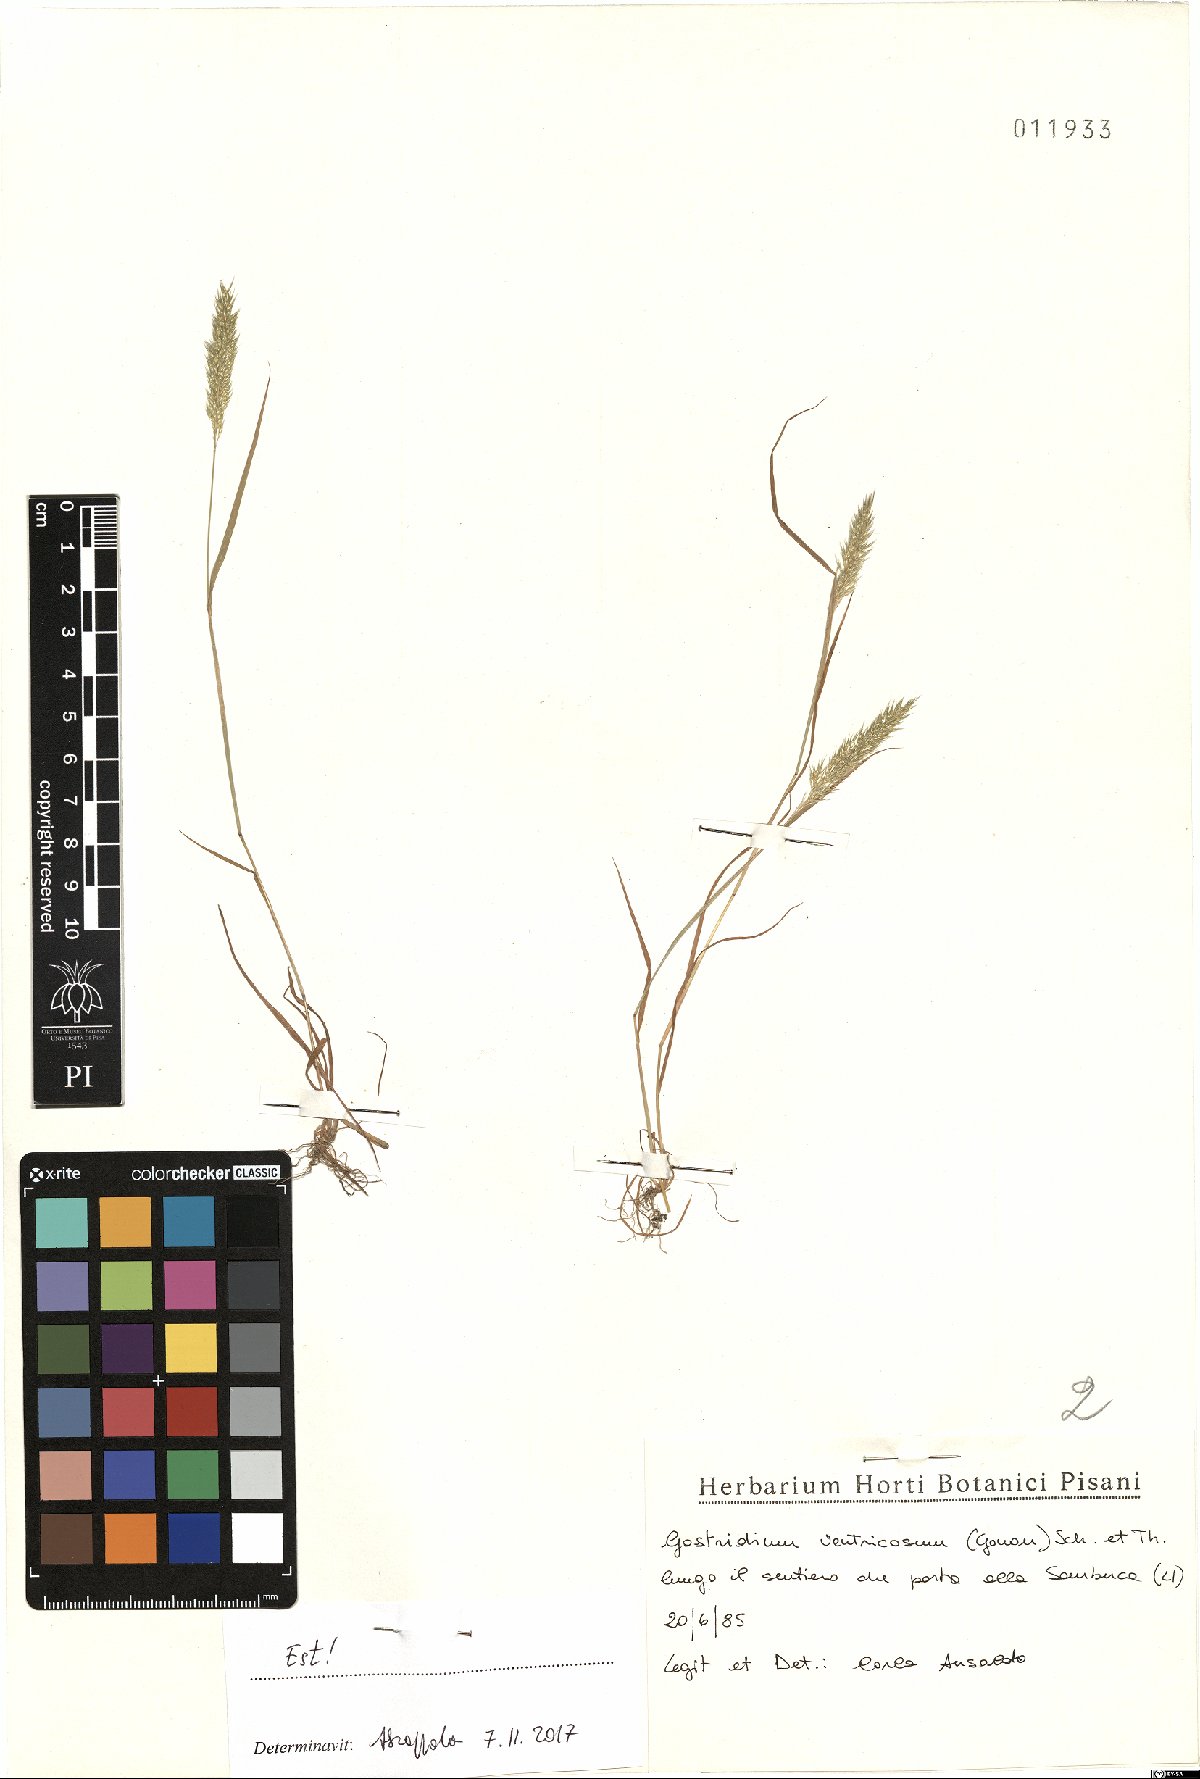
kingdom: Plantae
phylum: Tracheophyta
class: Liliopsida
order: Poales
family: Poaceae
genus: Gastridium
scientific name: Gastridium ventricosum
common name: Nit-grass
